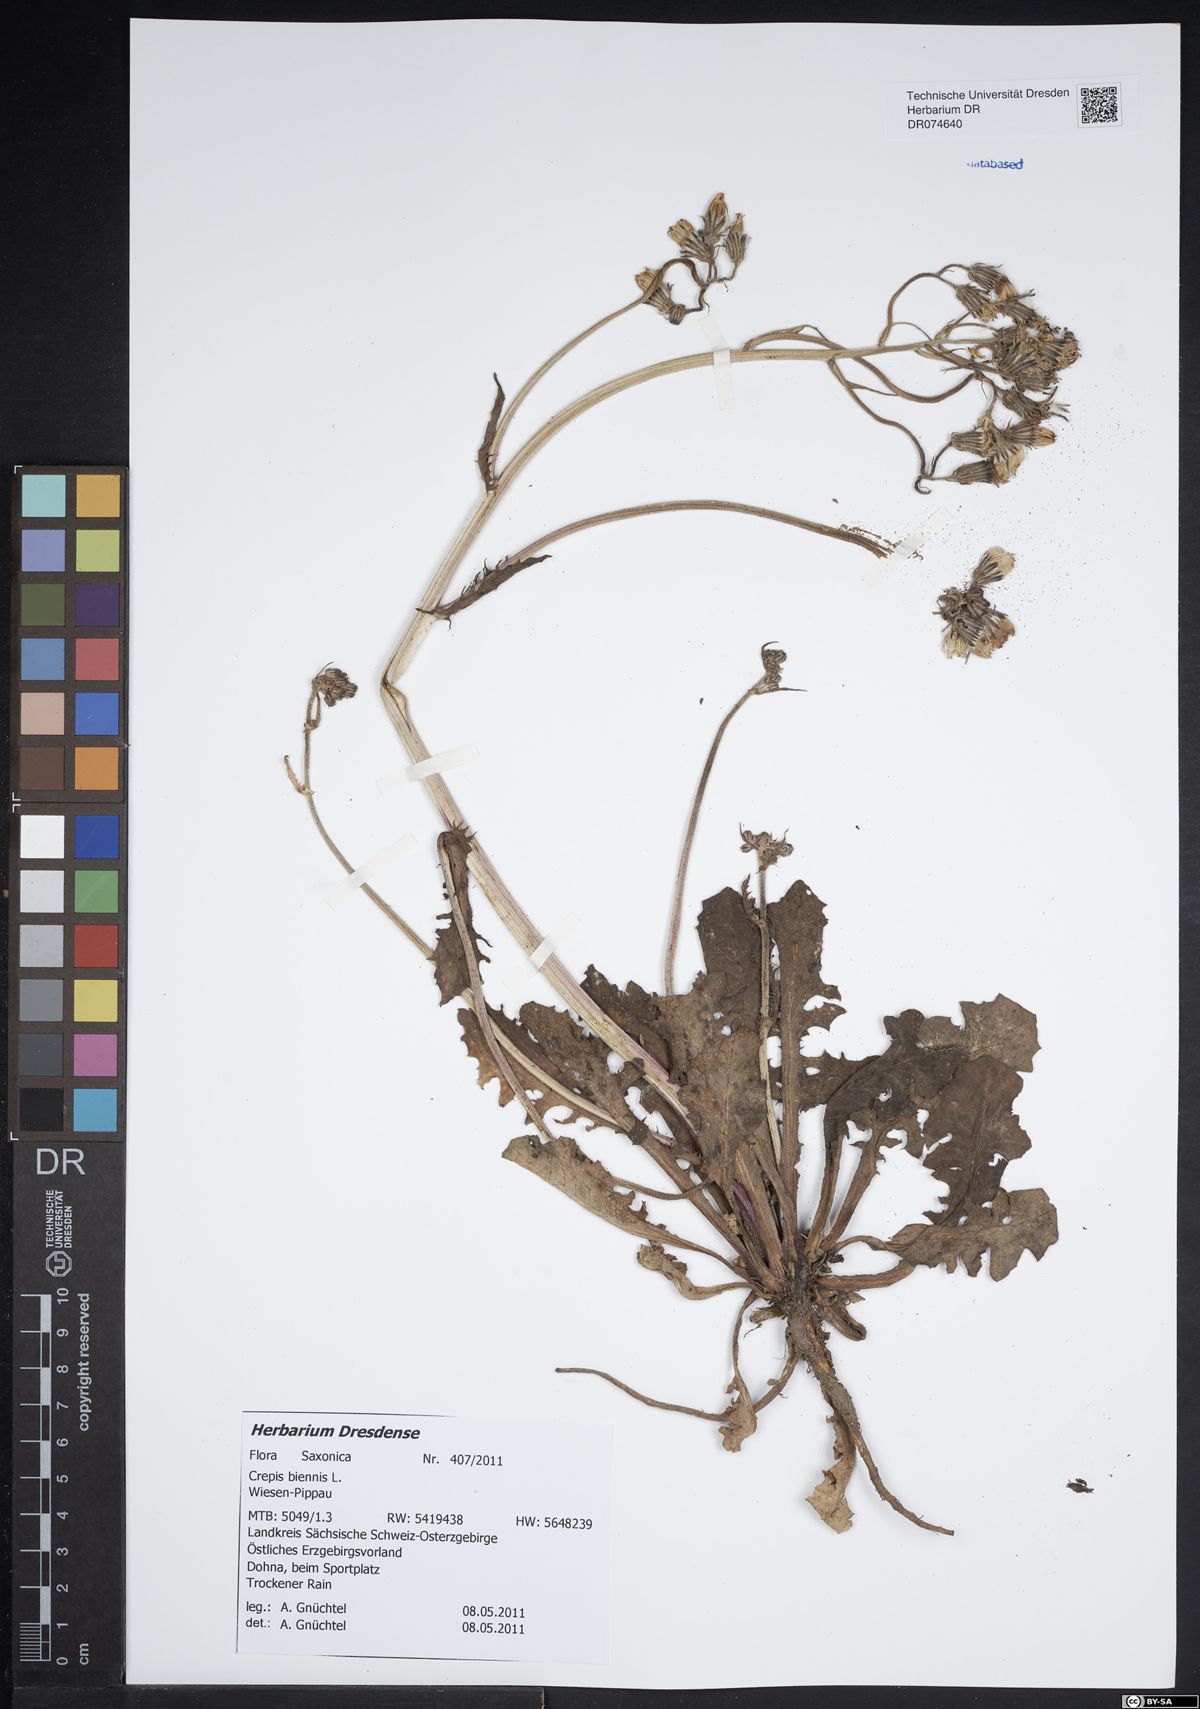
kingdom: Plantae
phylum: Tracheophyta
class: Magnoliopsida
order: Asterales
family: Asteraceae
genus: Crepis
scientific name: Crepis biennis
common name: Rough hawk's-beard
